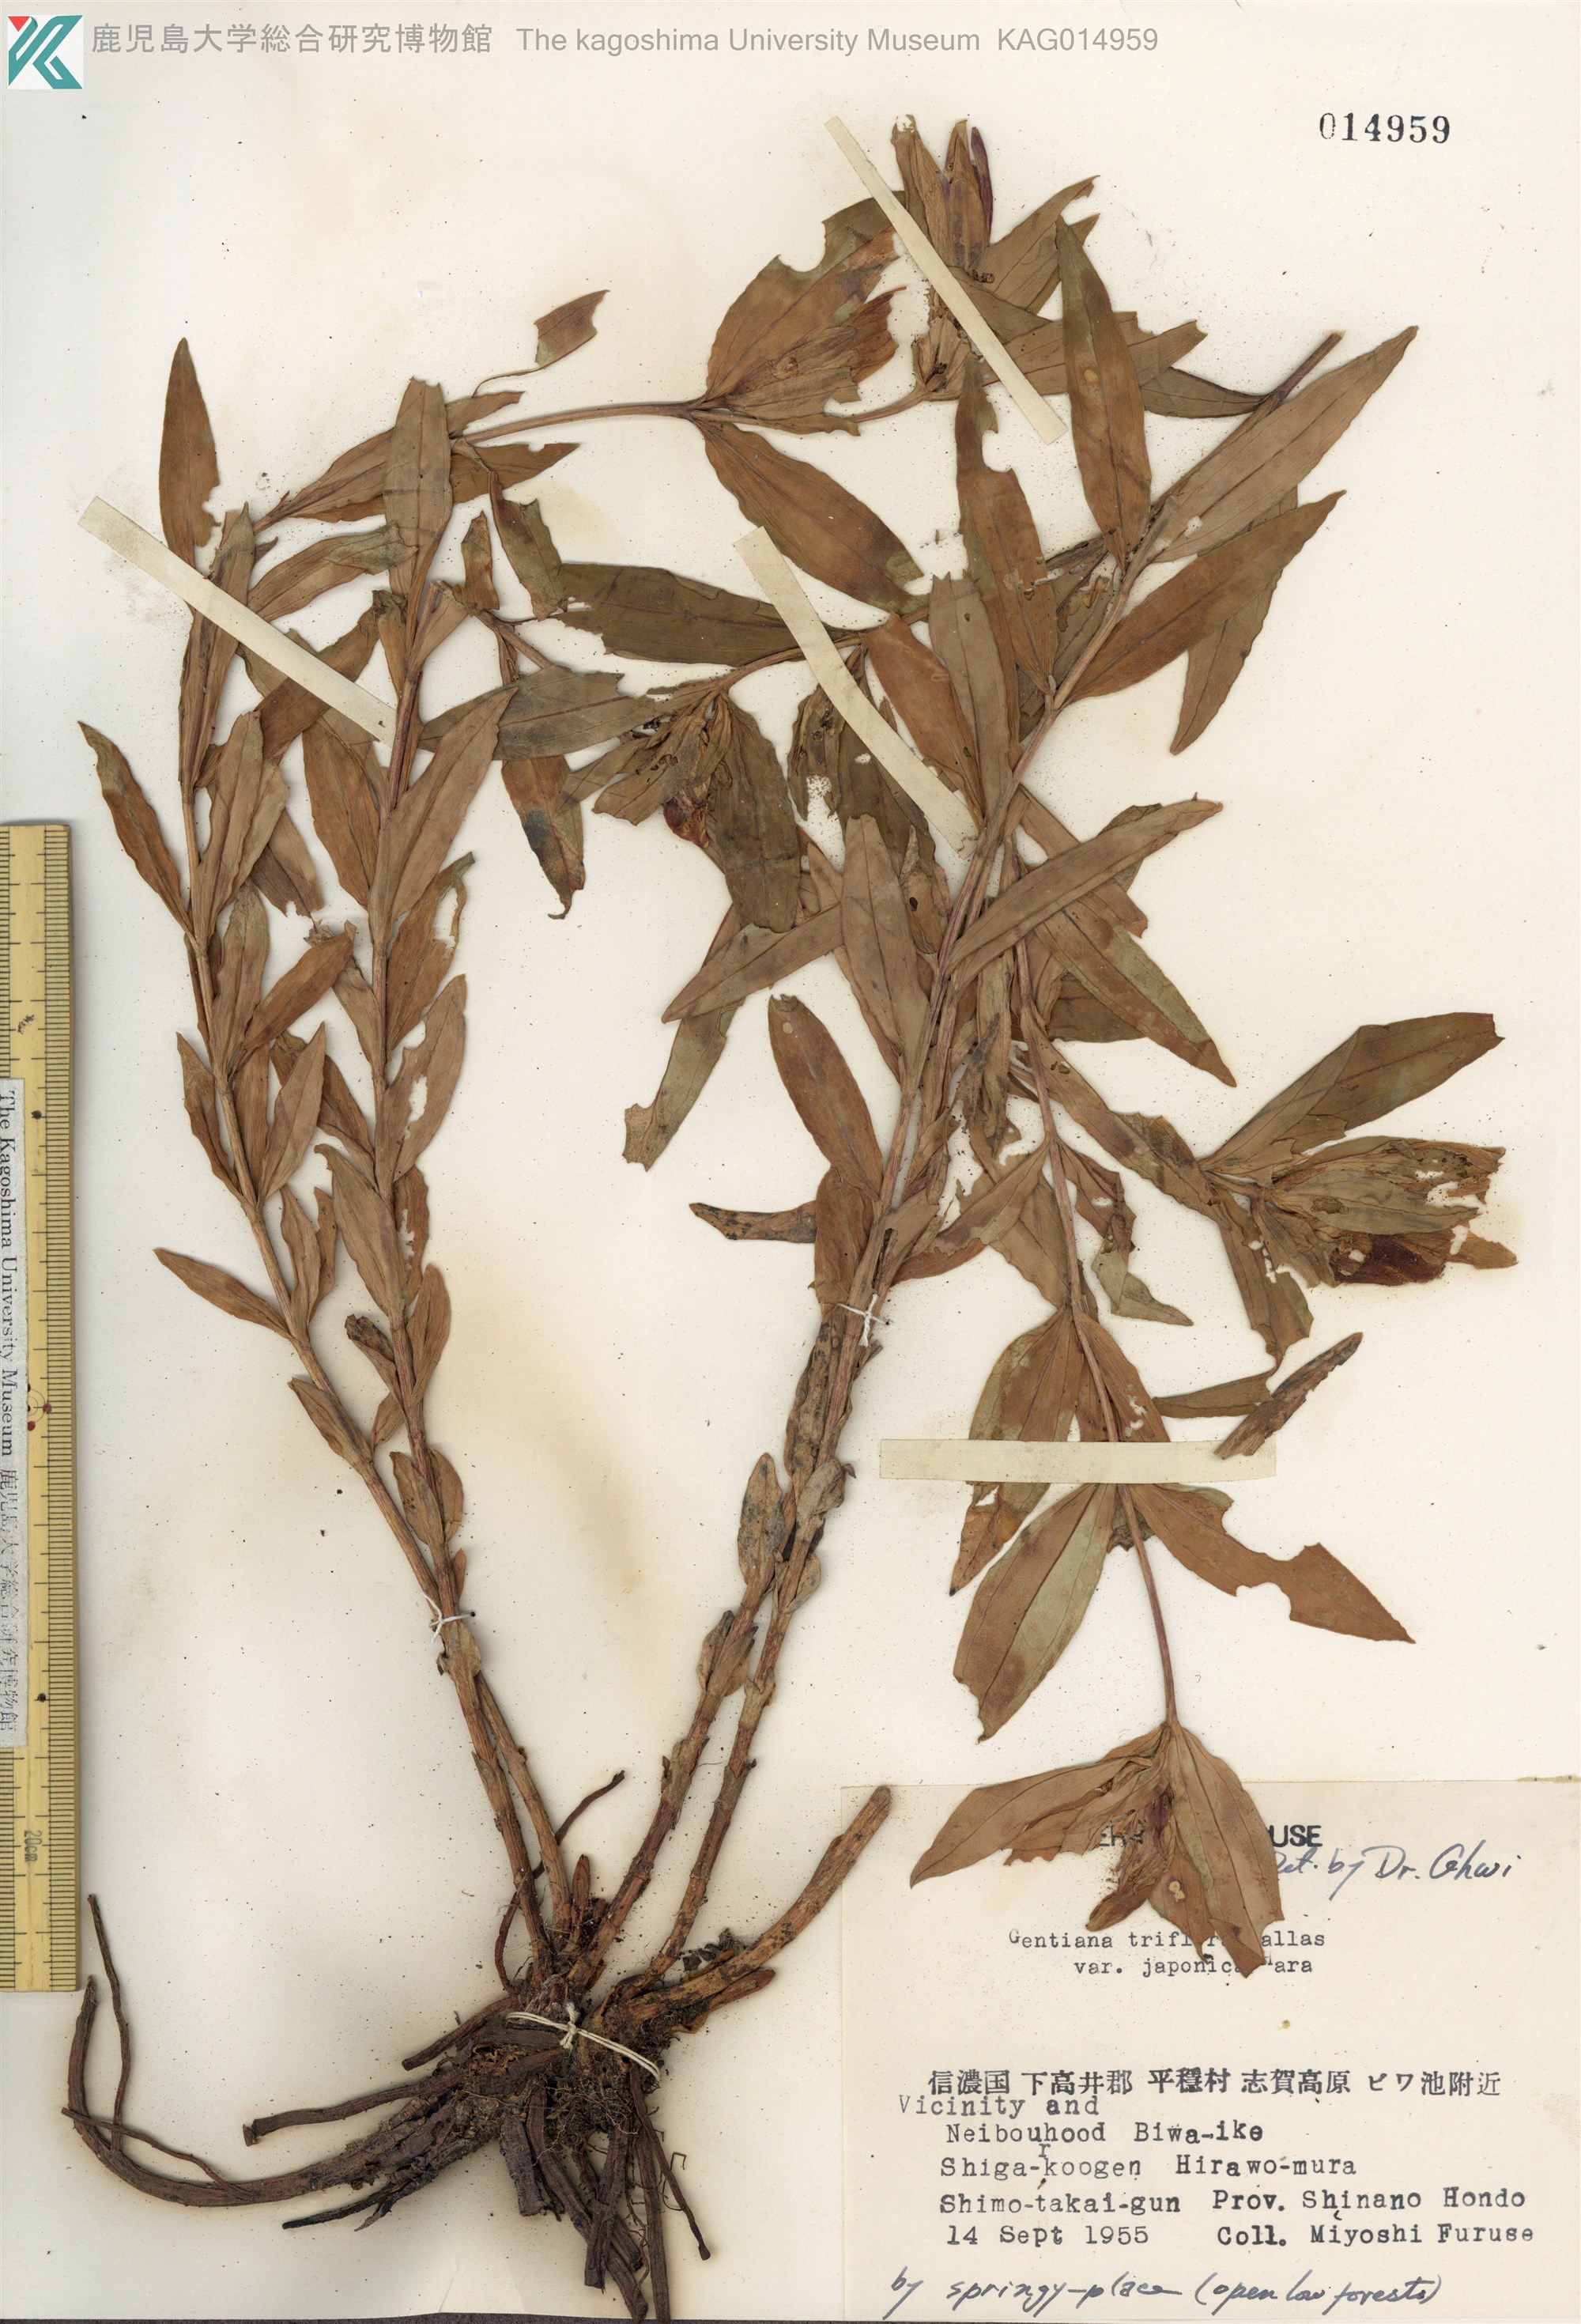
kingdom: Plantae
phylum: Tracheophyta
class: Magnoliopsida
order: Gentianales
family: Gentianaceae
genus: Gentiana
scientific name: Gentiana triflora
